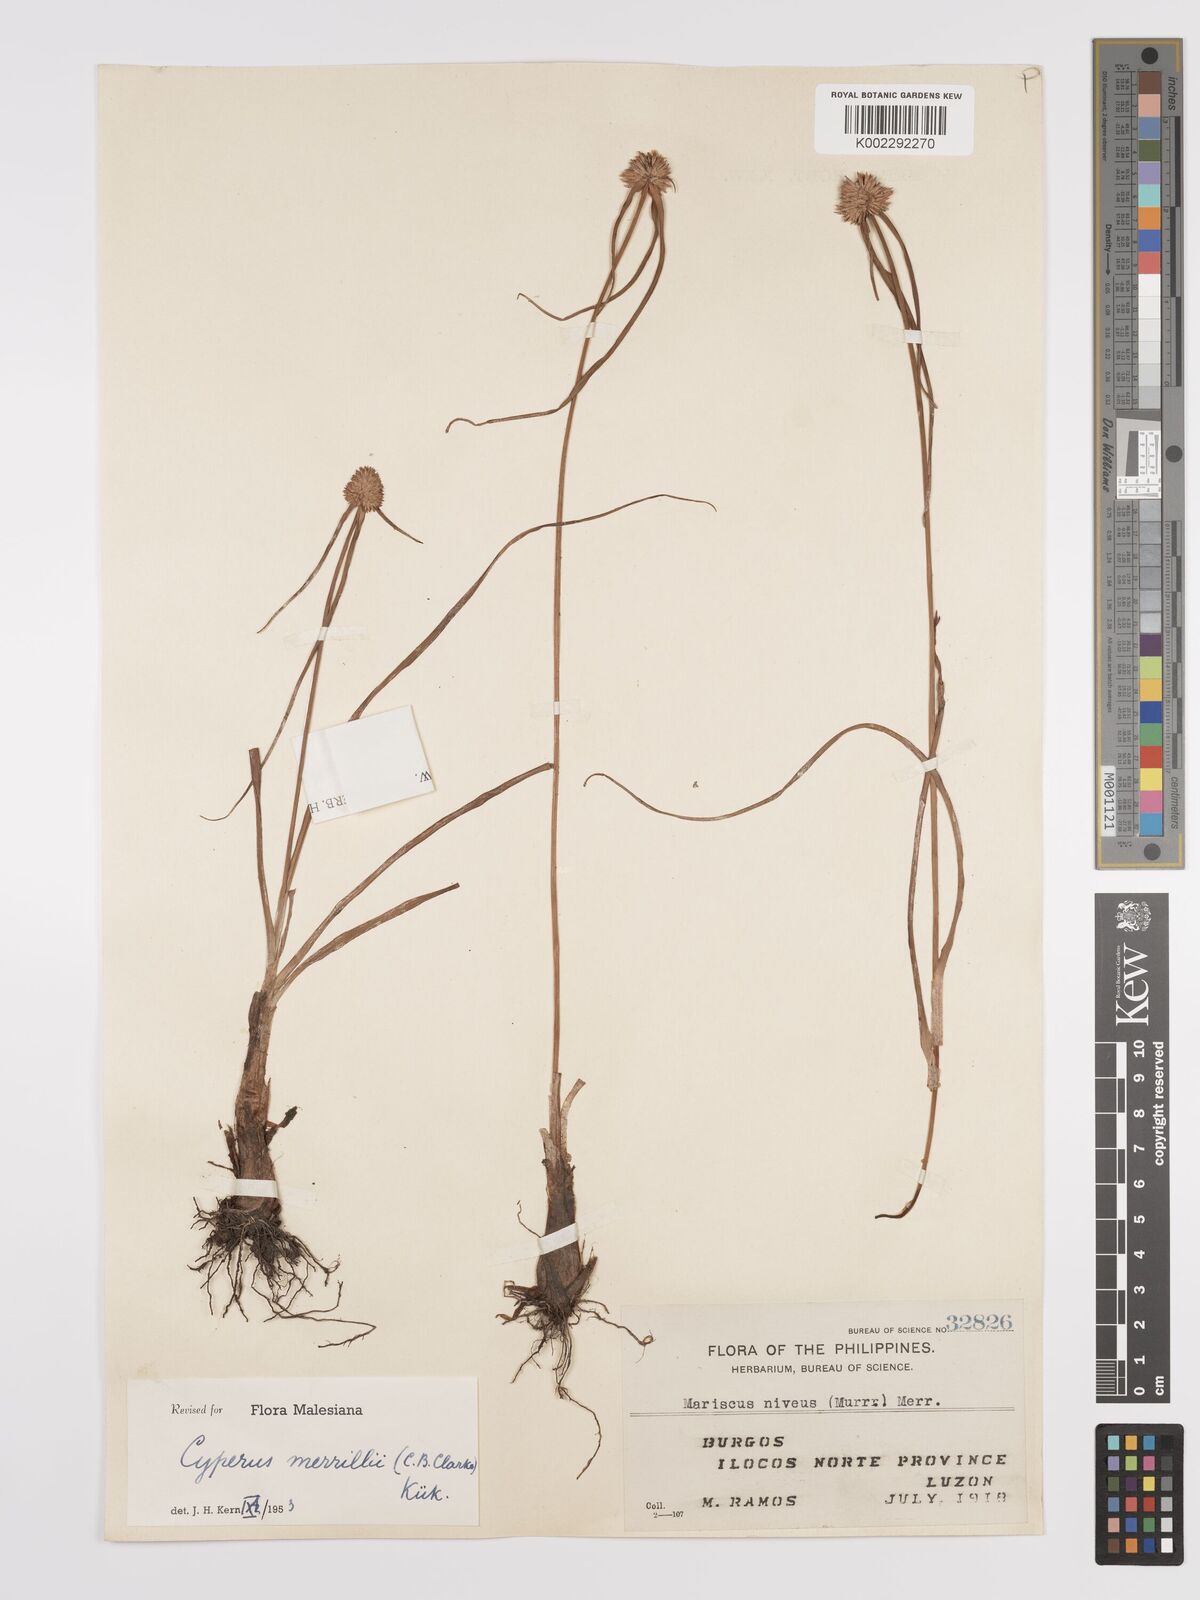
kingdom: Plantae
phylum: Tracheophyta
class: Liliopsida
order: Poales
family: Cyperaceae
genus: Cyperus
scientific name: Cyperus dubius
